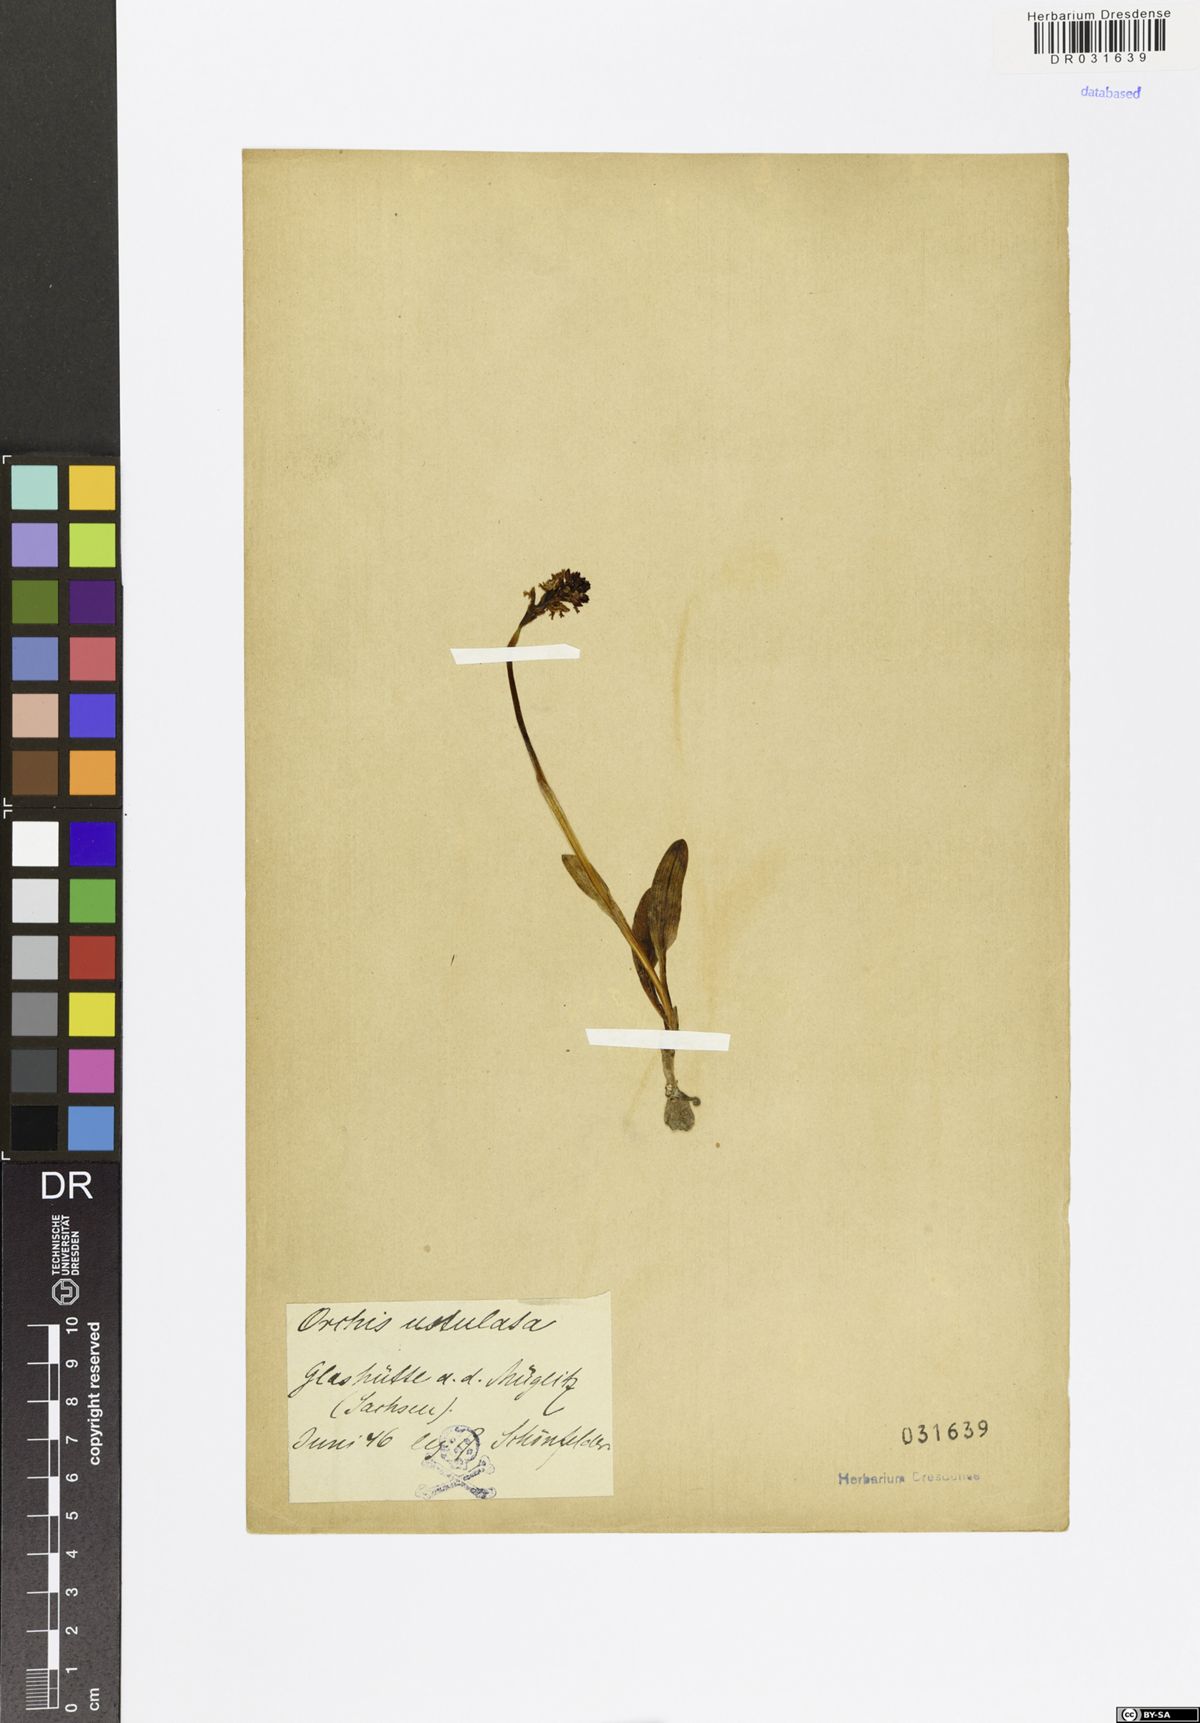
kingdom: Plantae
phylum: Tracheophyta
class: Liliopsida
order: Asparagales
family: Orchidaceae
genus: Neotinea
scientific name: Neotinea ustulata
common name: Burnt orchid
